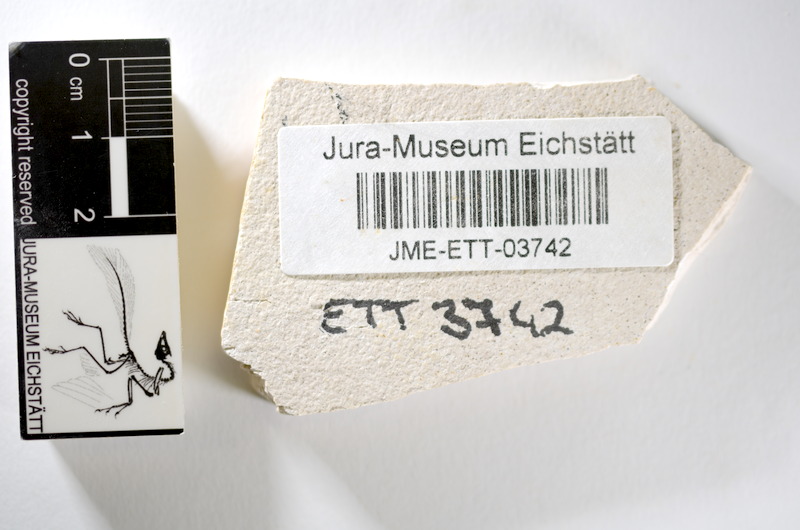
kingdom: Animalia
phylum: Chordata
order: Salmoniformes
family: Orthogonikleithridae
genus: Orthogonikleithrus
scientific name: Orthogonikleithrus hoelli
